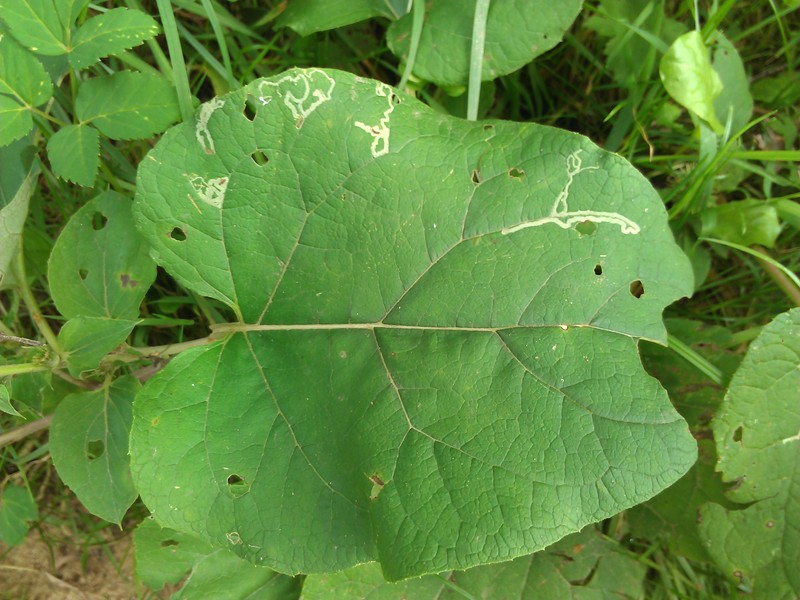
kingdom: Animalia
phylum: Arthropoda
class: Insecta
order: Diptera
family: Agromyzidae
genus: Phytomyza
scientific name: Phytomyza atricornis
